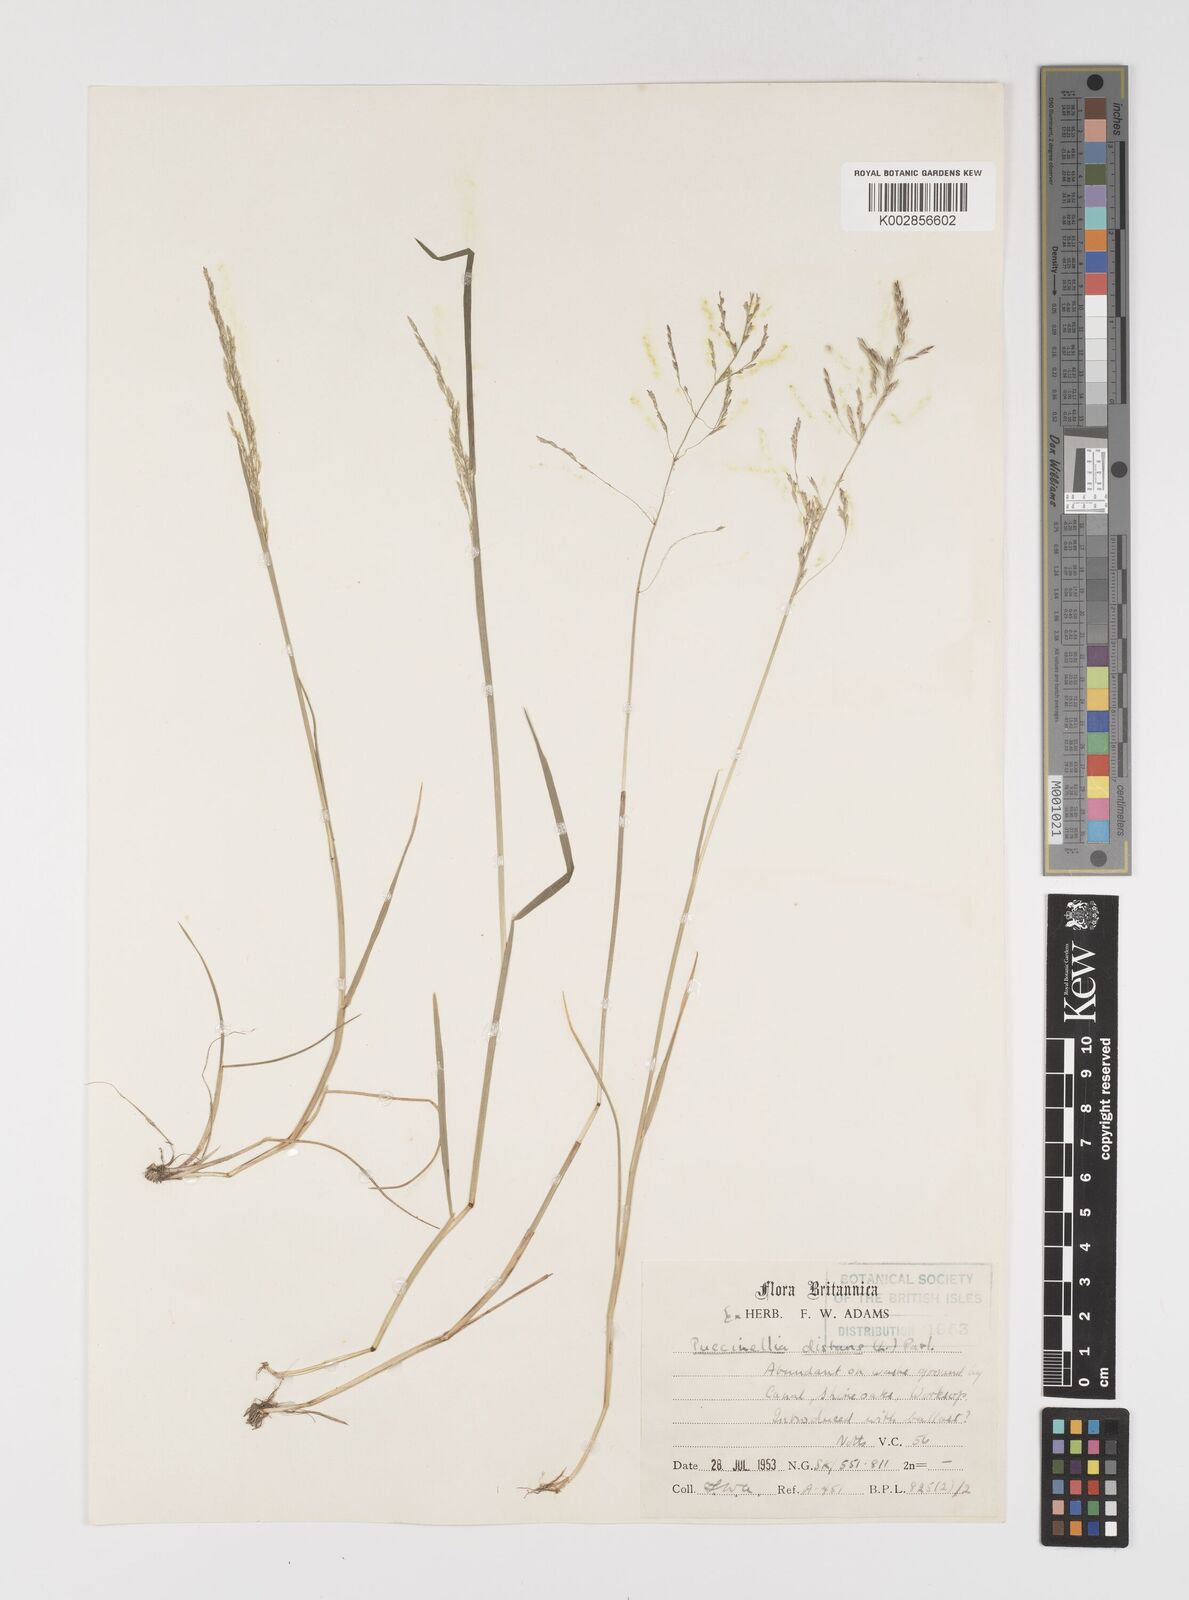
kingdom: Plantae
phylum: Tracheophyta
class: Liliopsida
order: Poales
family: Poaceae
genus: Puccinellia
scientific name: Puccinellia distans
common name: Weeping alkaligrass
